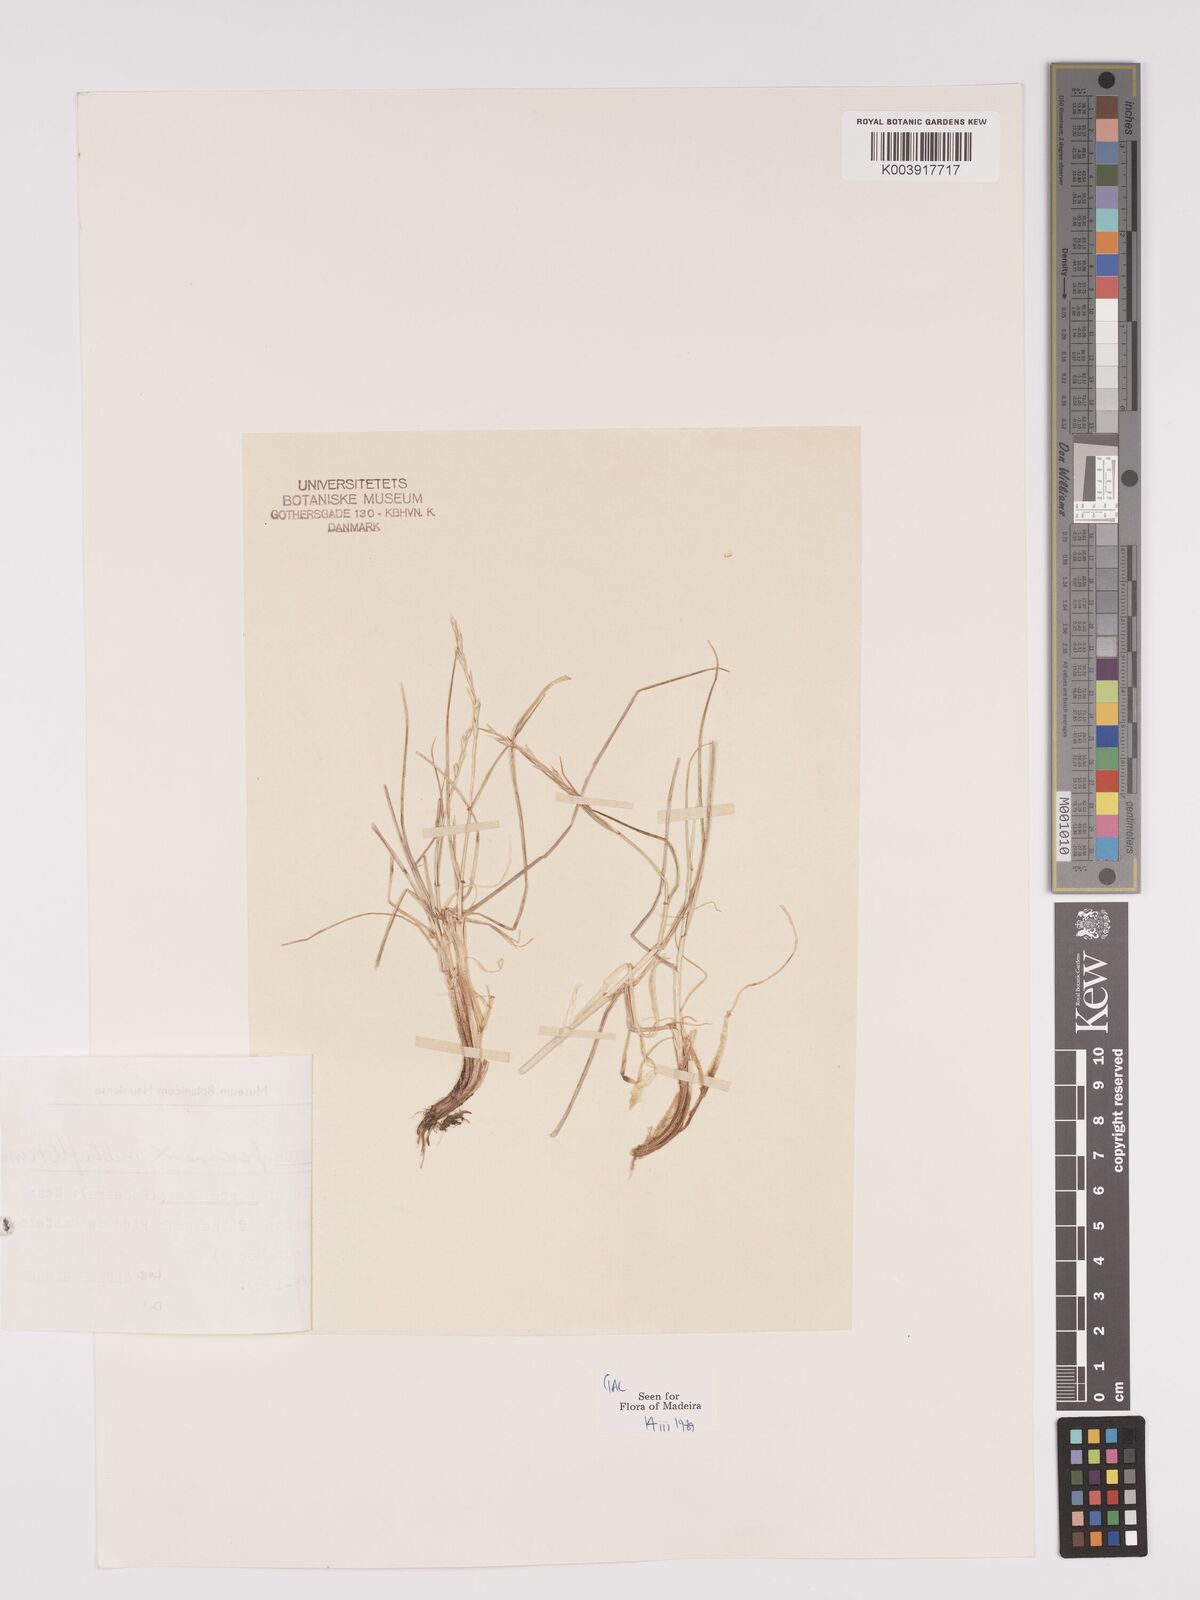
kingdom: Plantae
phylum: Tracheophyta
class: Liliopsida
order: Poales
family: Poaceae
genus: Lolium
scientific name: Lolium multiflorum
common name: Annual ryegrass
